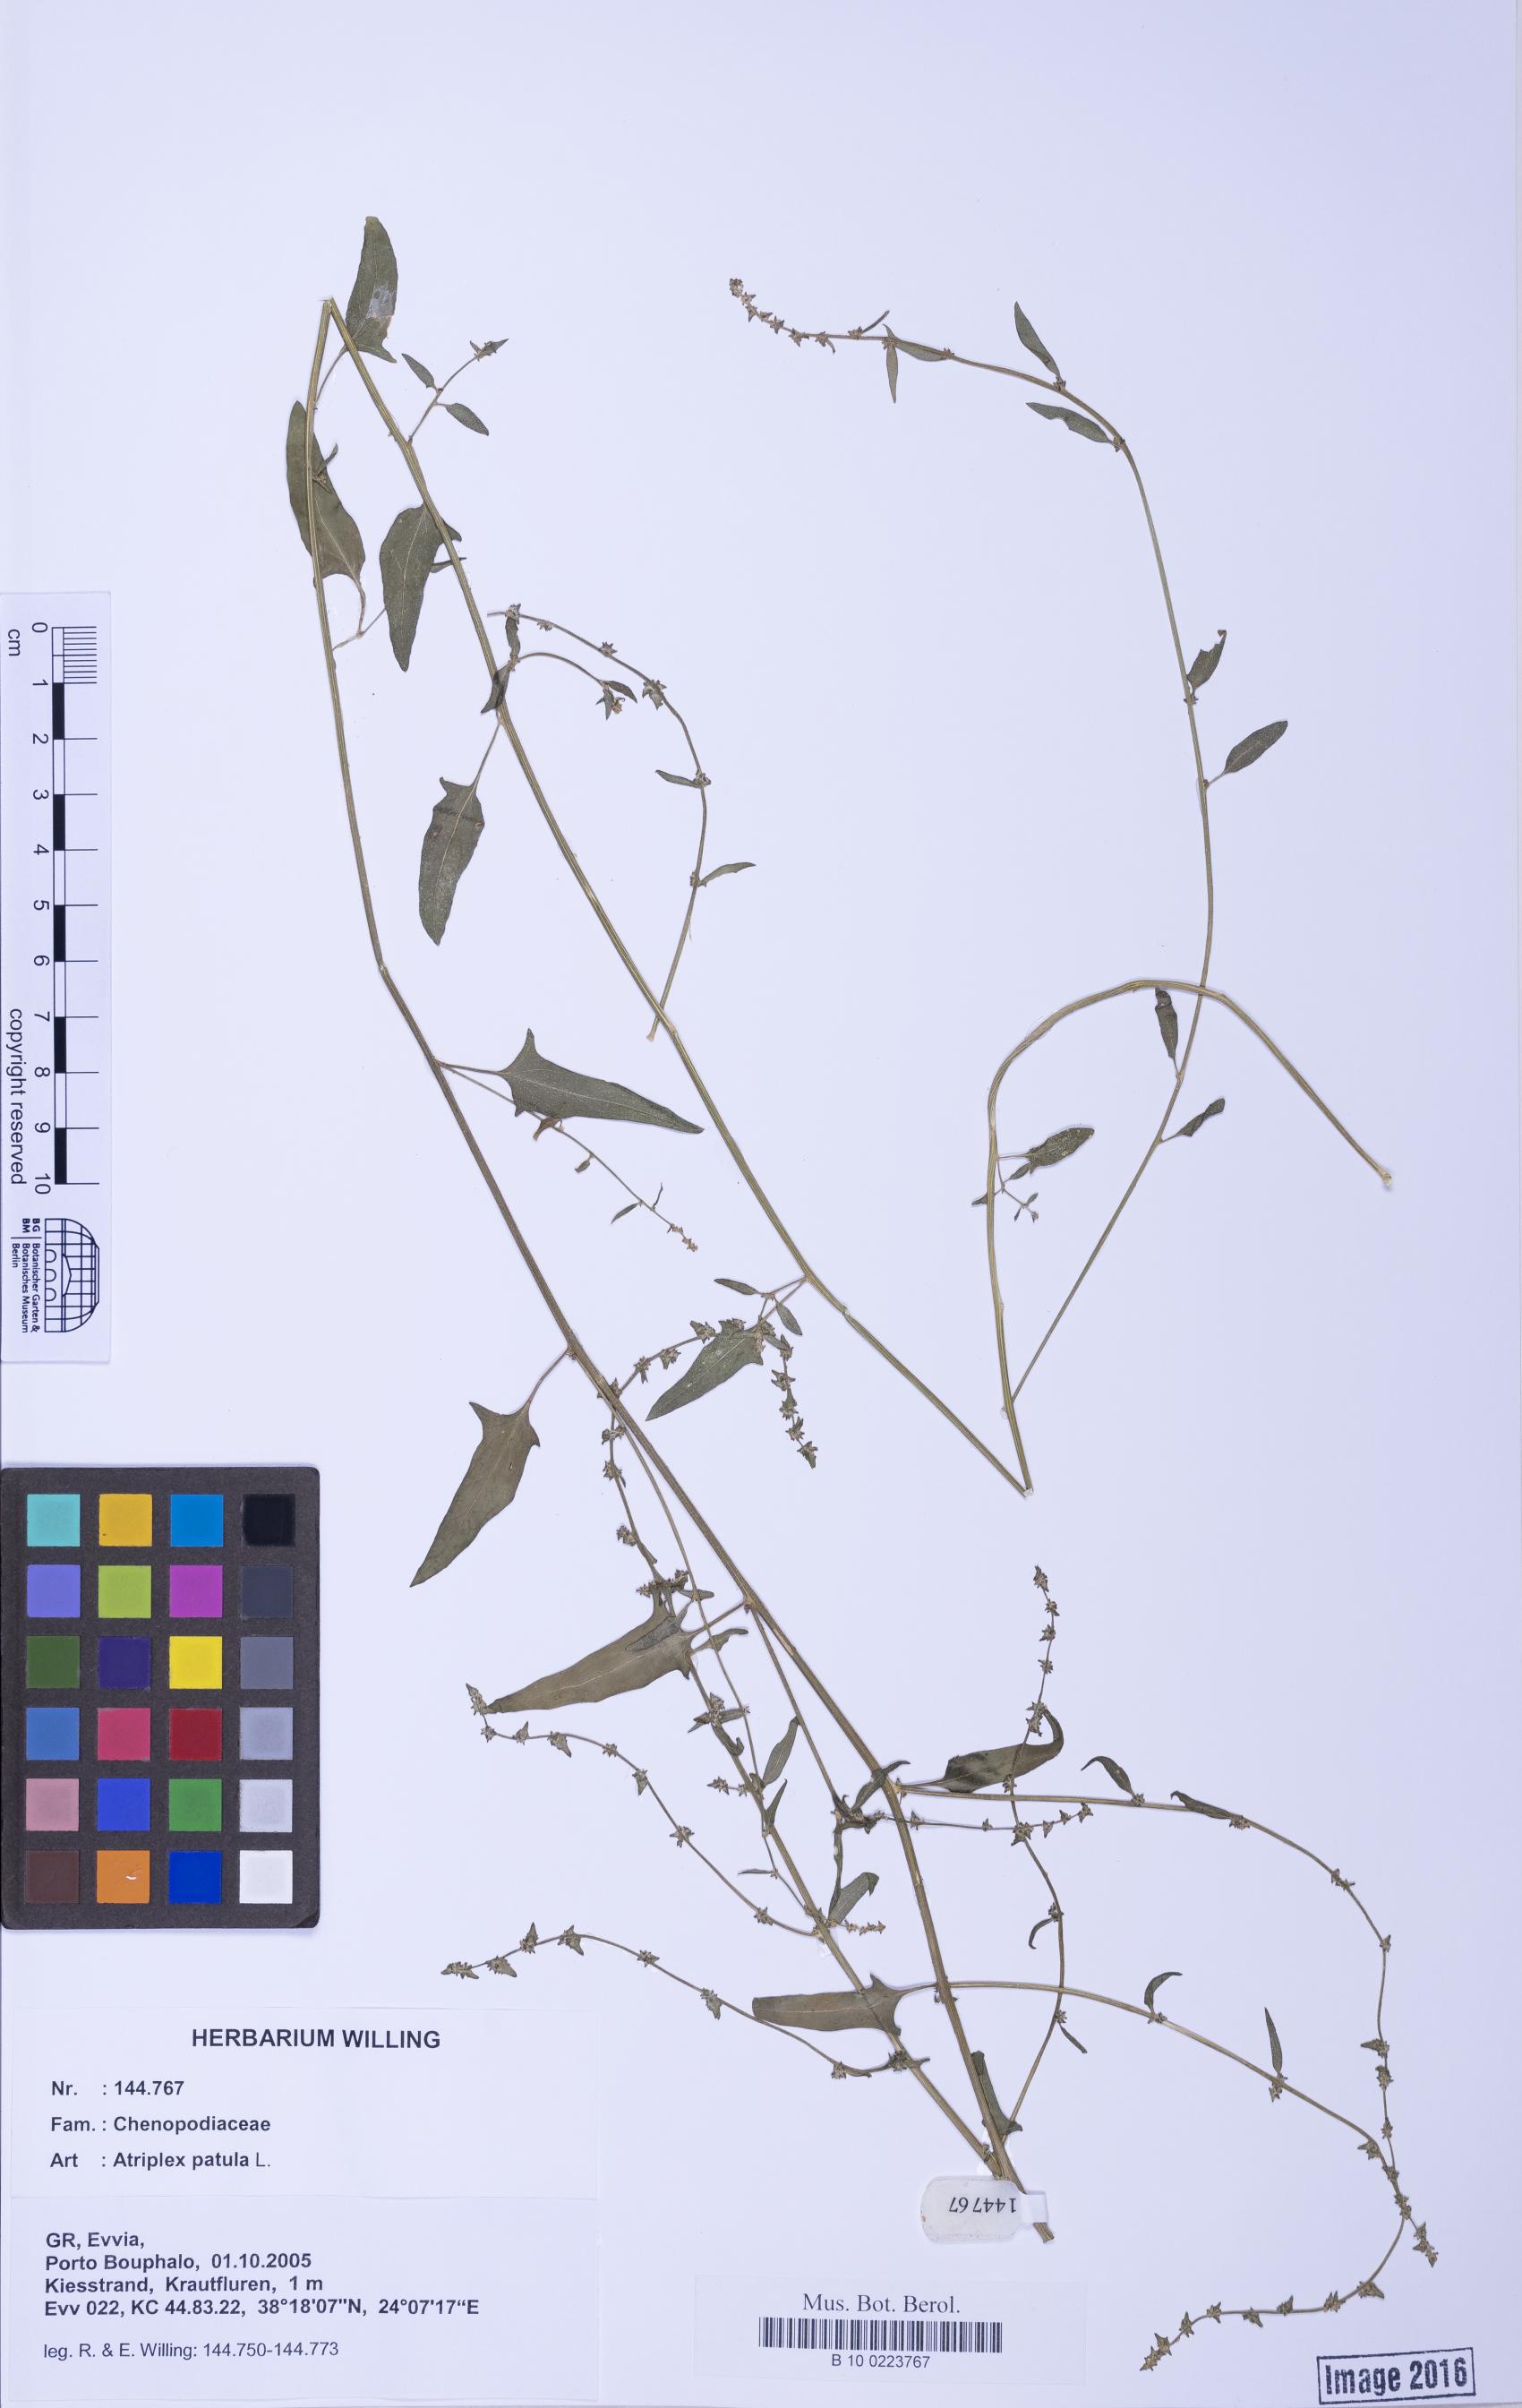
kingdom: Plantae
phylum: Tracheophyta
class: Magnoliopsida
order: Caryophyllales
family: Amaranthaceae
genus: Atriplex
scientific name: Atriplex prostrata
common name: Spear-leaved orache
